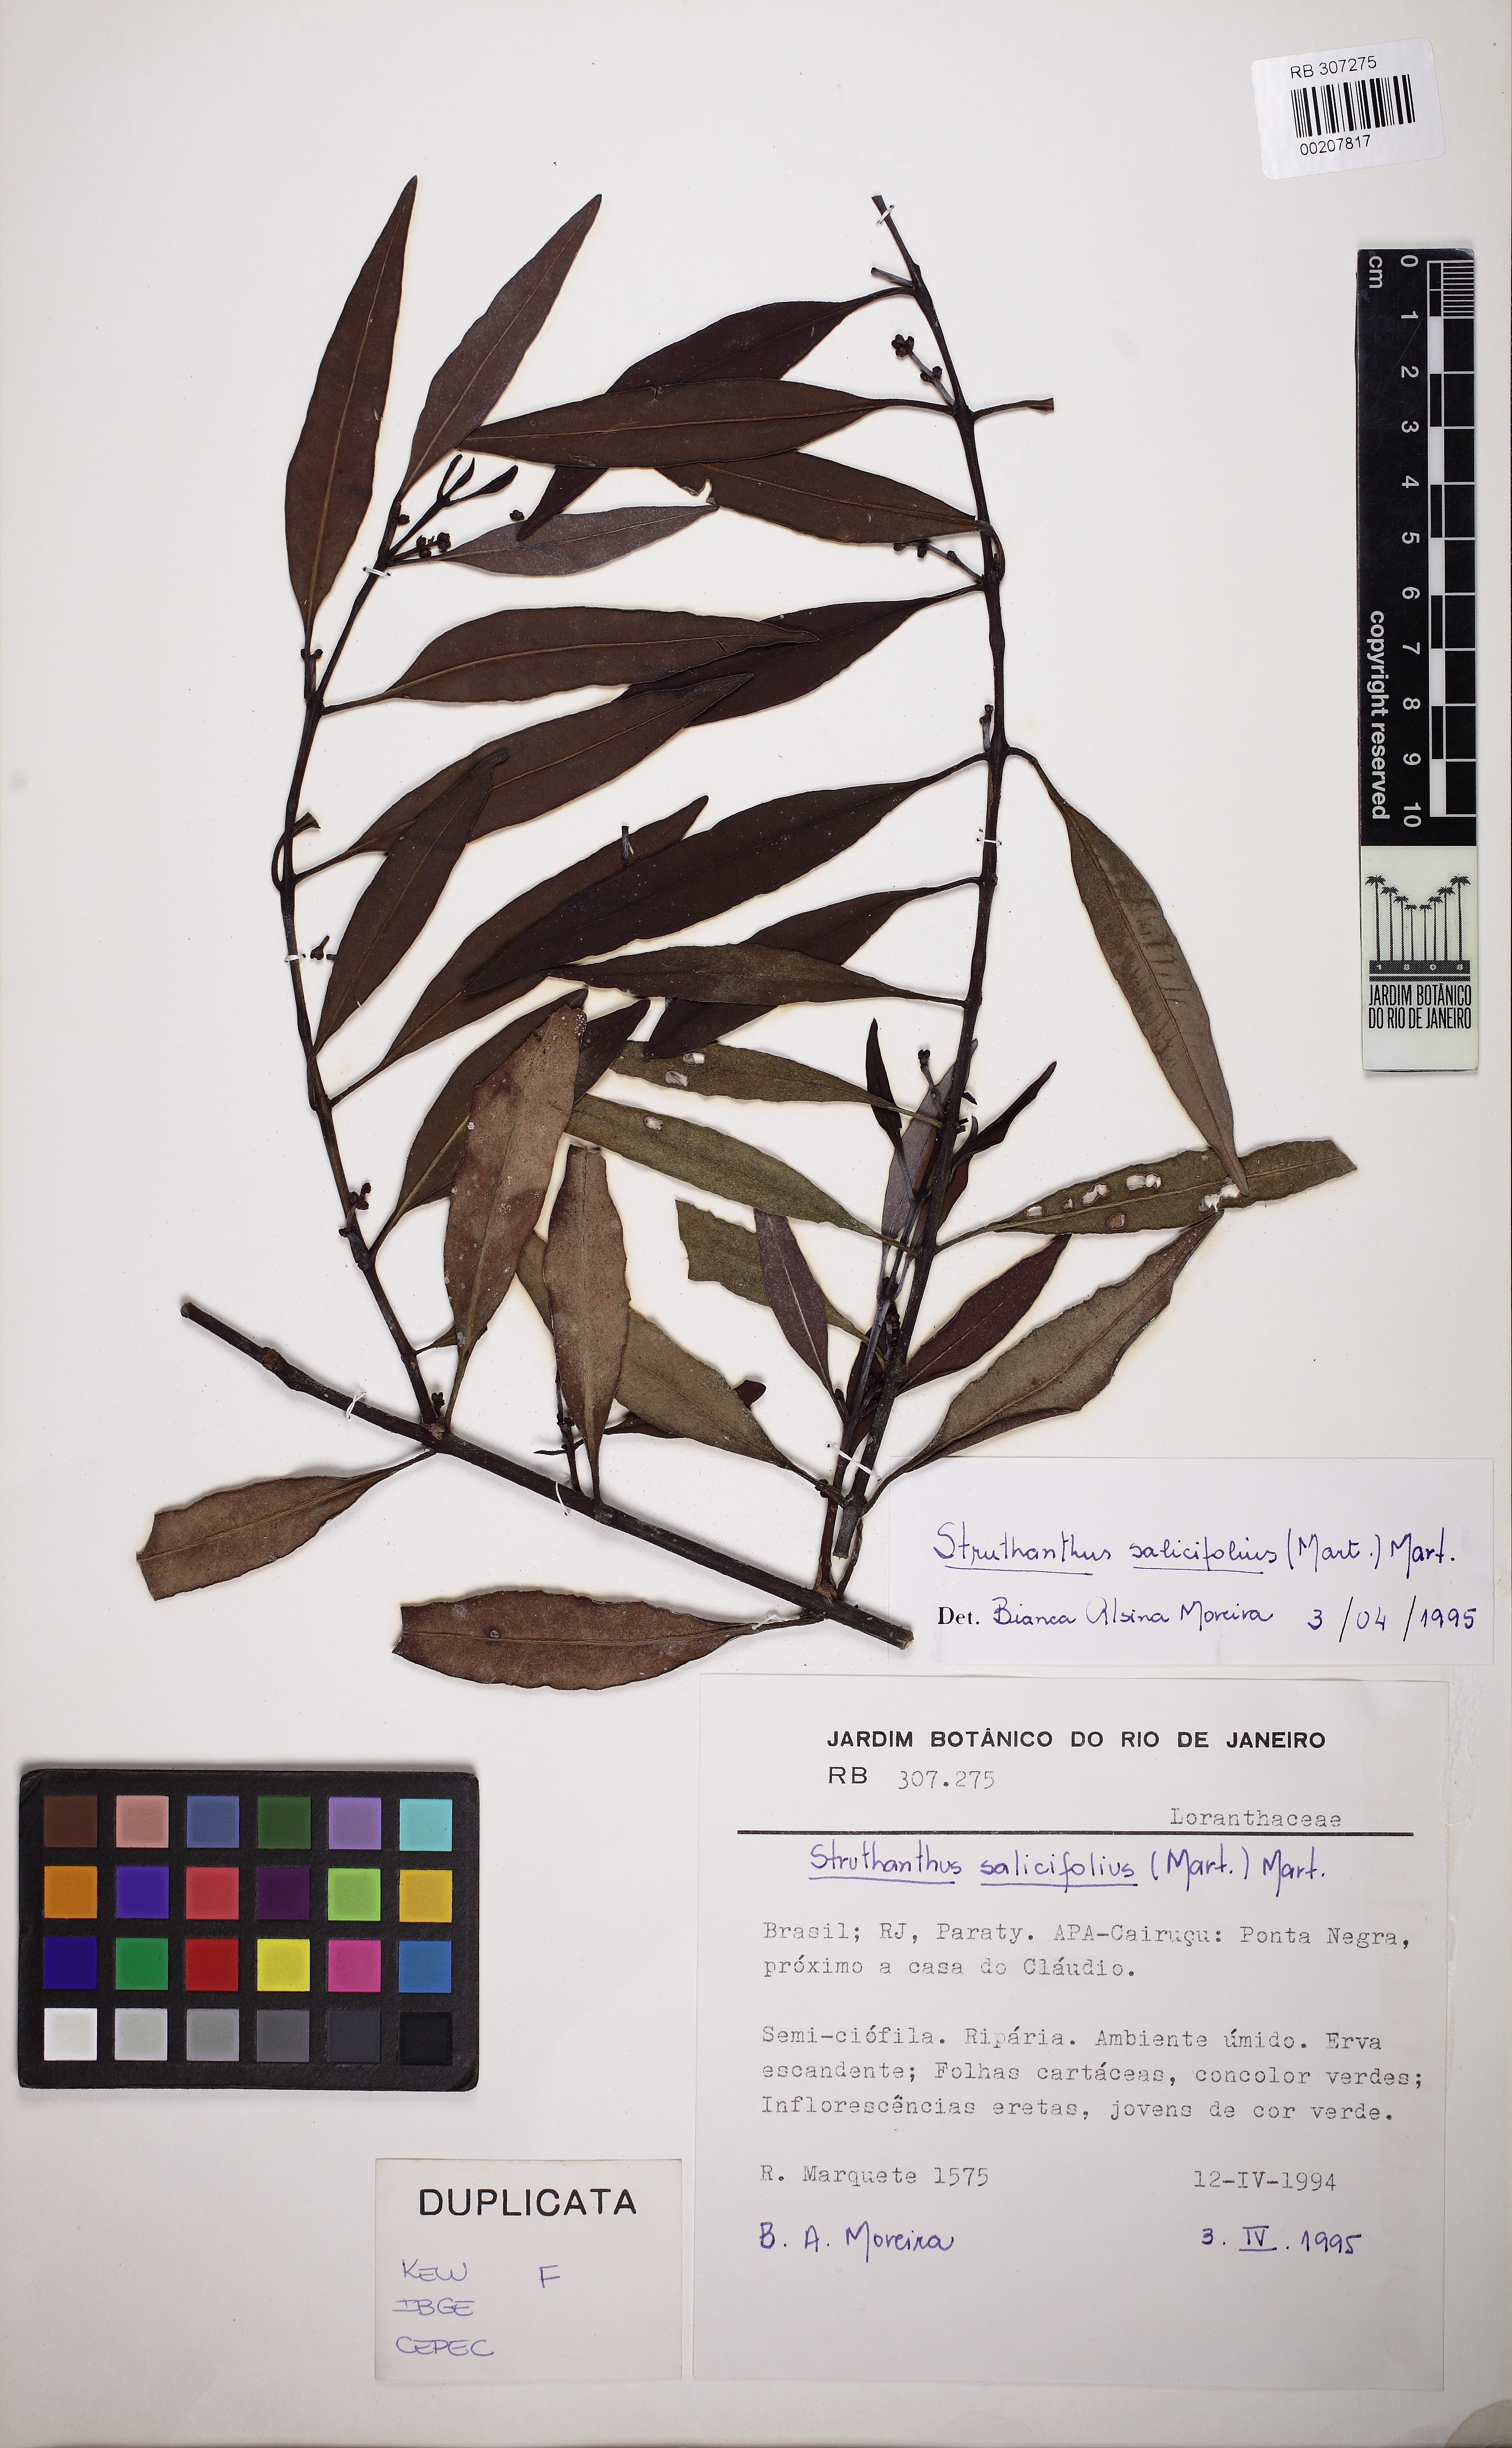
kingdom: Plantae
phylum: Tracheophyta
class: Magnoliopsida
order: Santalales
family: Loranthaceae
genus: Struthanthus
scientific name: Struthanthus salicifolius
